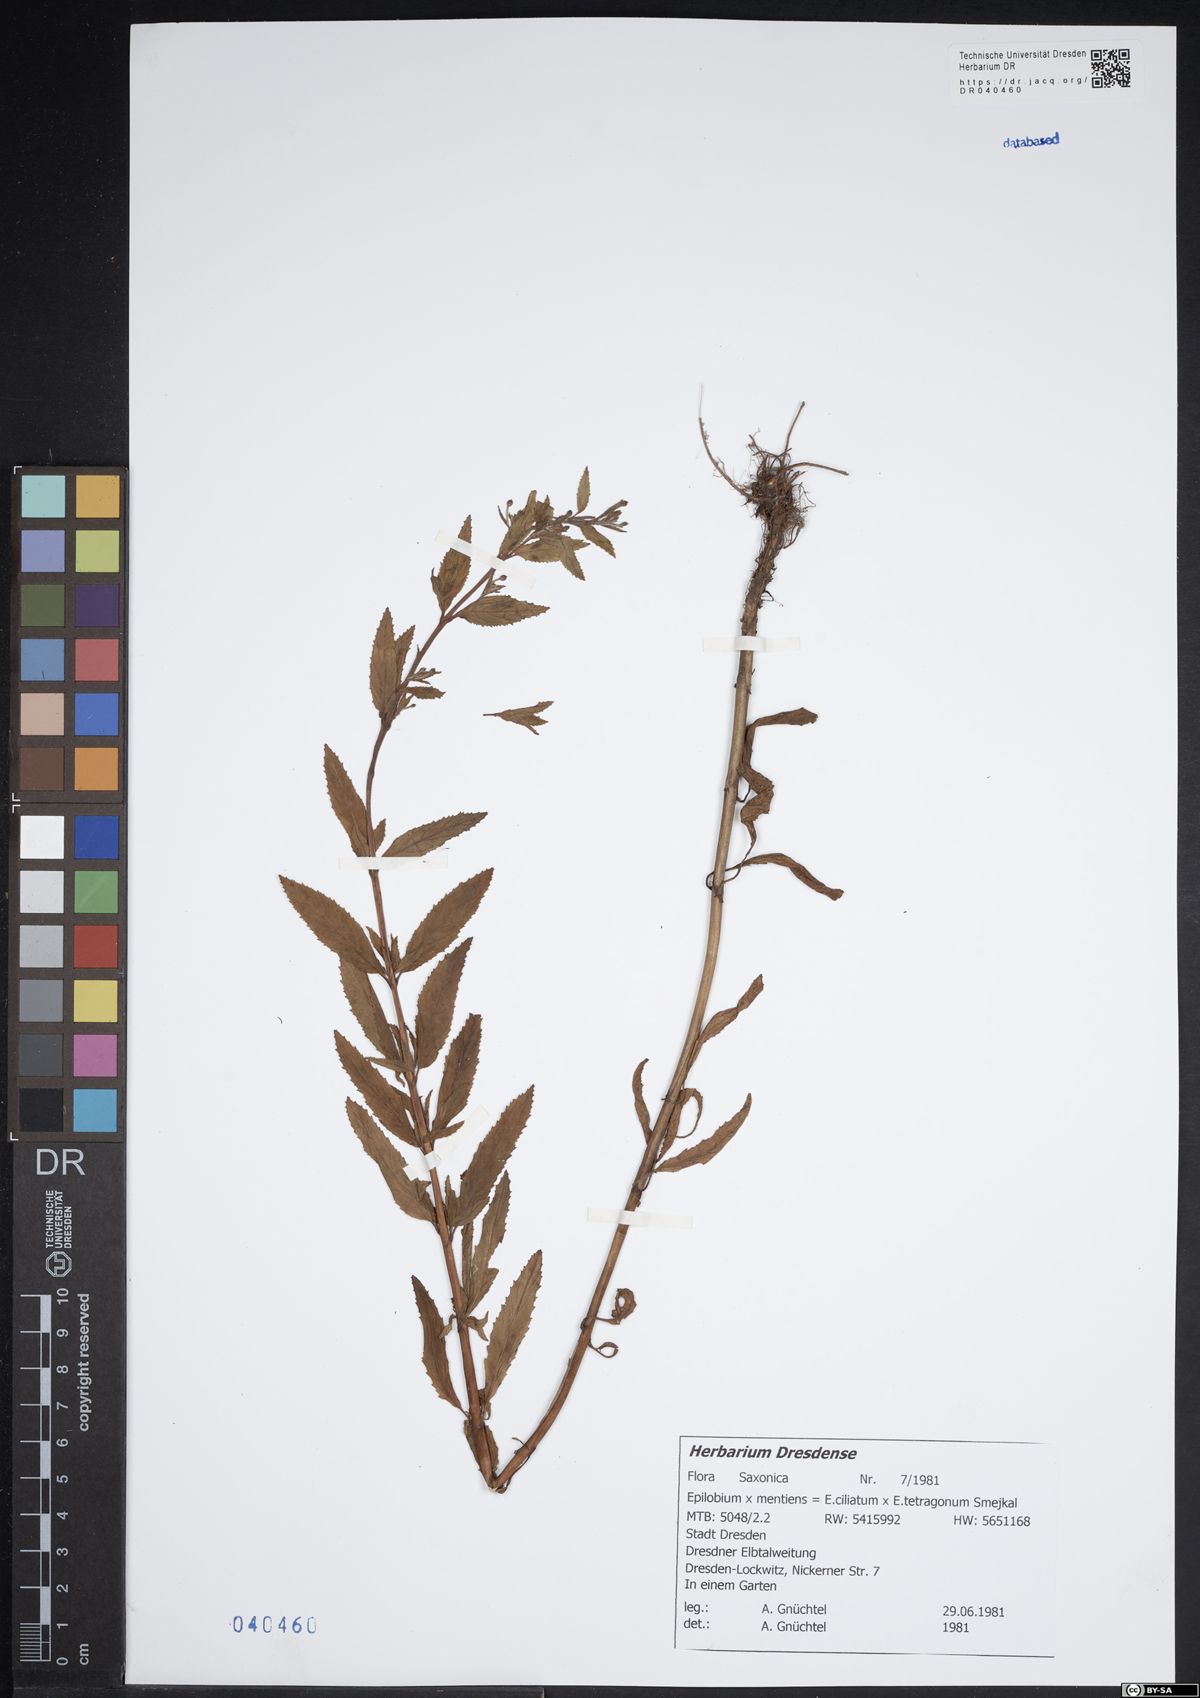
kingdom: Plantae
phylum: Tracheophyta
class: Magnoliopsida
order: Myrtales
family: Onagraceae
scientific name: Onagraceae
